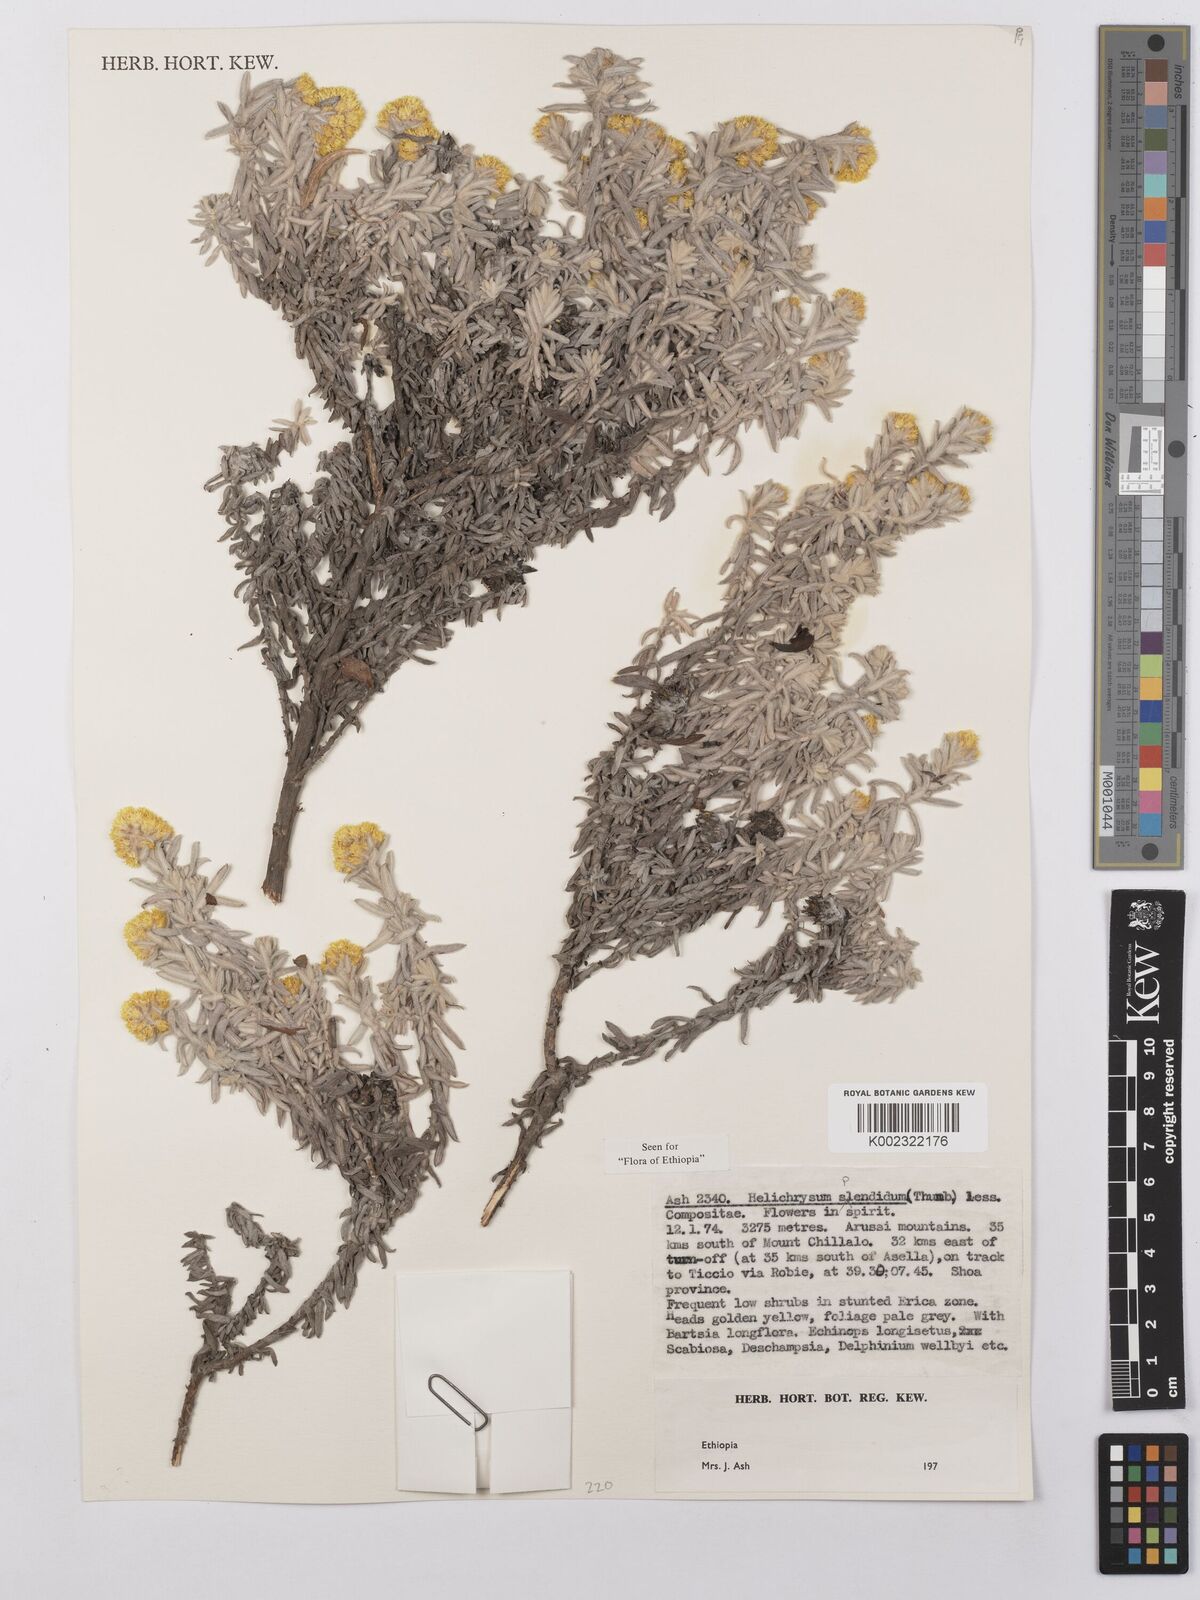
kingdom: Plantae
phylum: Tracheophyta
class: Magnoliopsida
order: Asterales
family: Asteraceae
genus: Helichrysum
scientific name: Helichrysum splendidum
